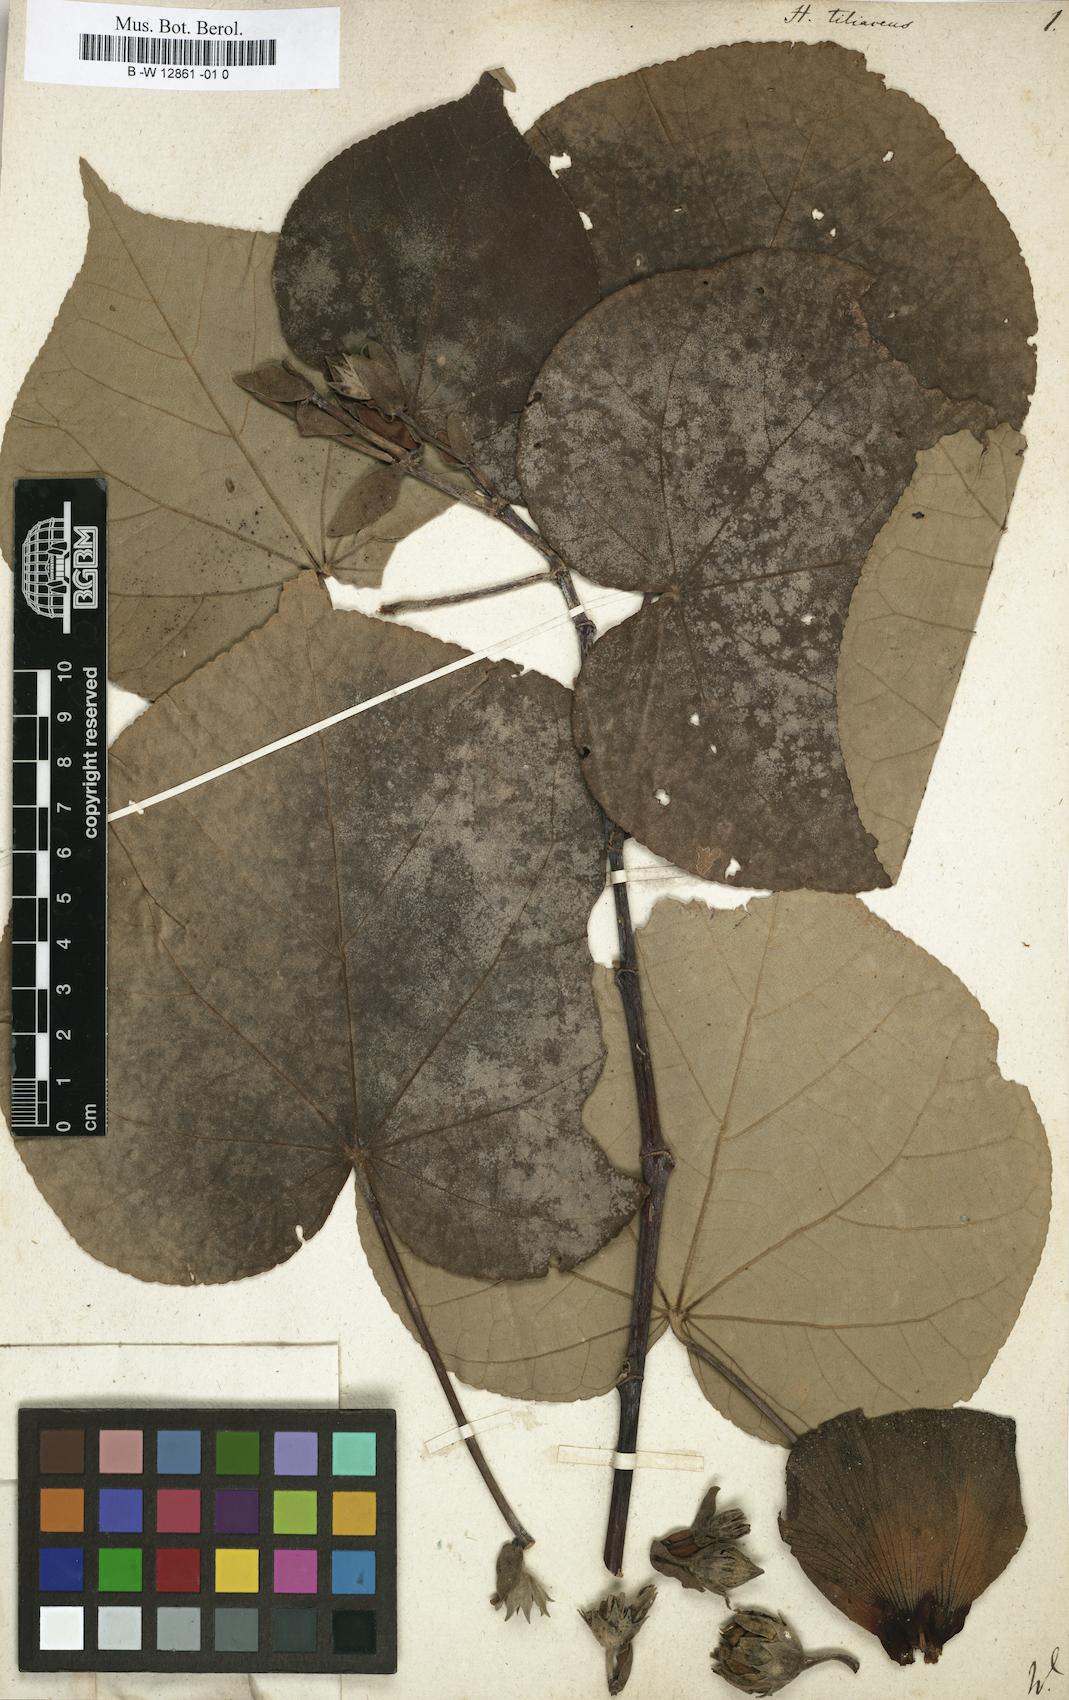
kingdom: Plantae
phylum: Tracheophyta
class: Magnoliopsida
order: Malvales
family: Malvaceae
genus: Talipariti
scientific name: Talipariti tiliaceum
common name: Sea hibiscus
